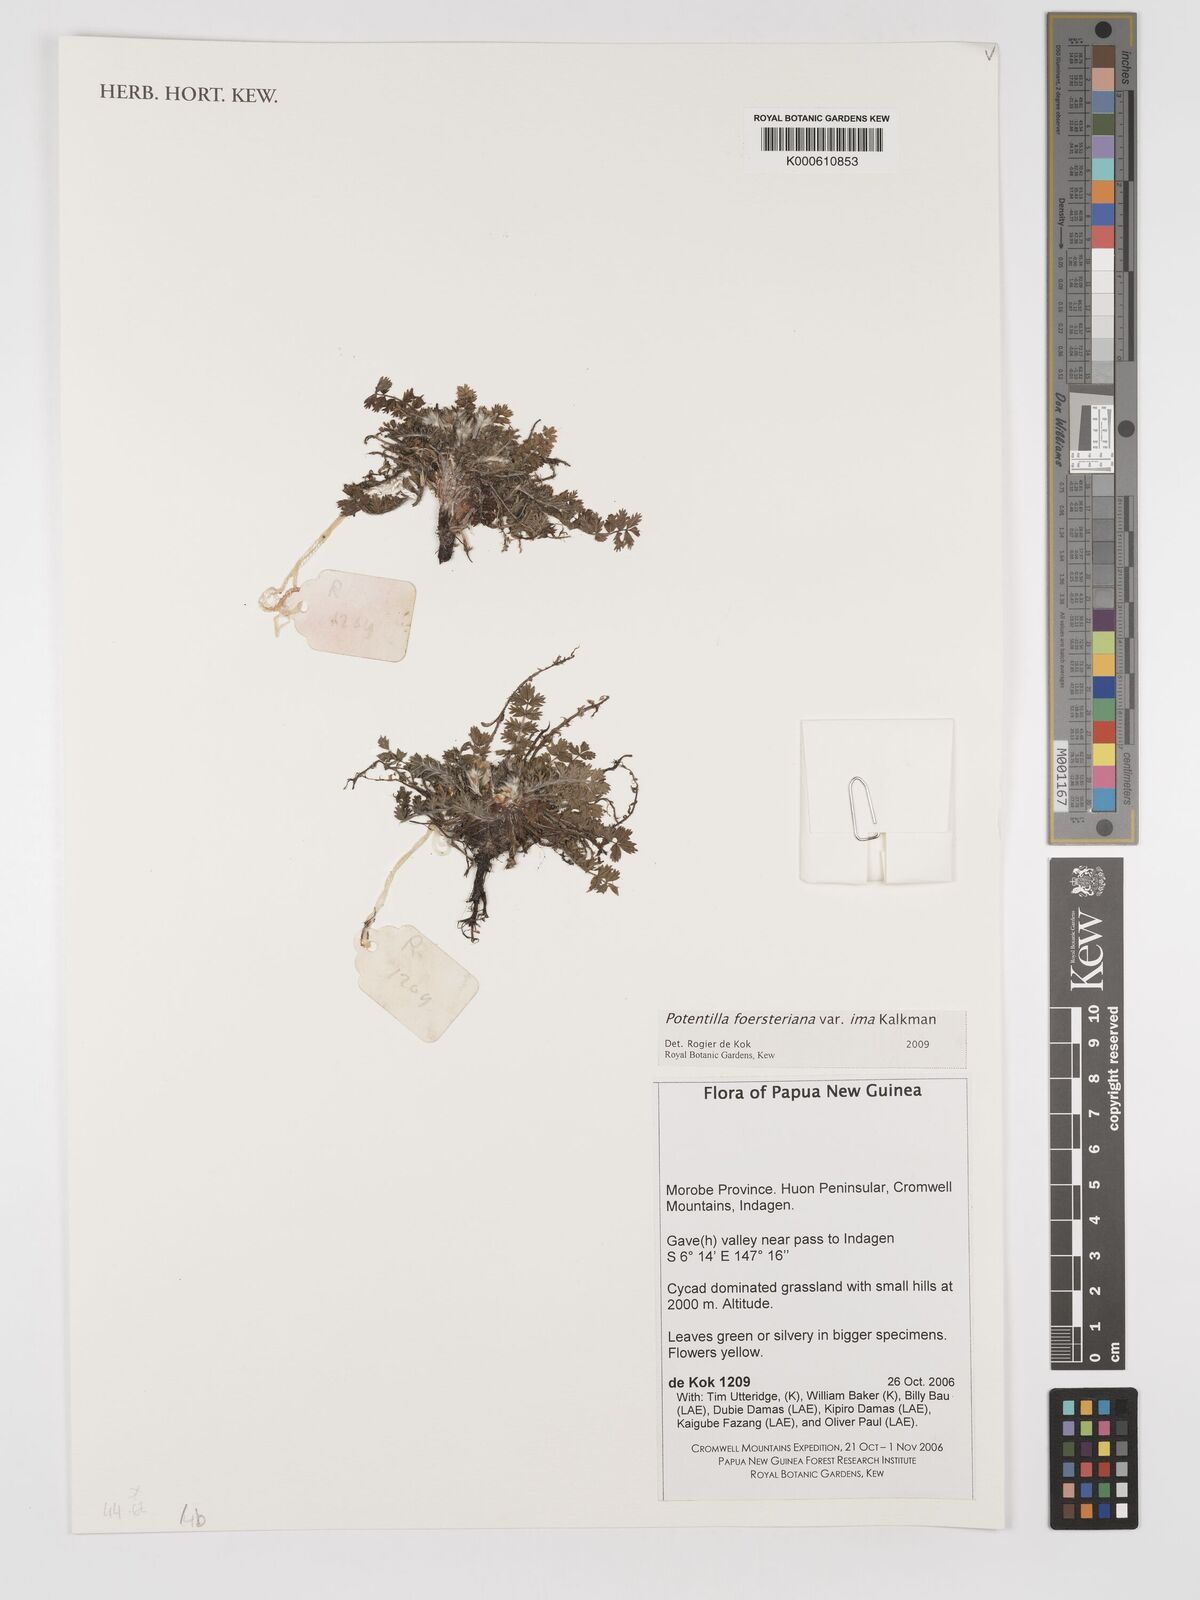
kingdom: Plantae
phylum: Tracheophyta
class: Magnoliopsida
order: Rosales
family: Rosaceae
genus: Potentilla
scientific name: Potentilla foersteriana
